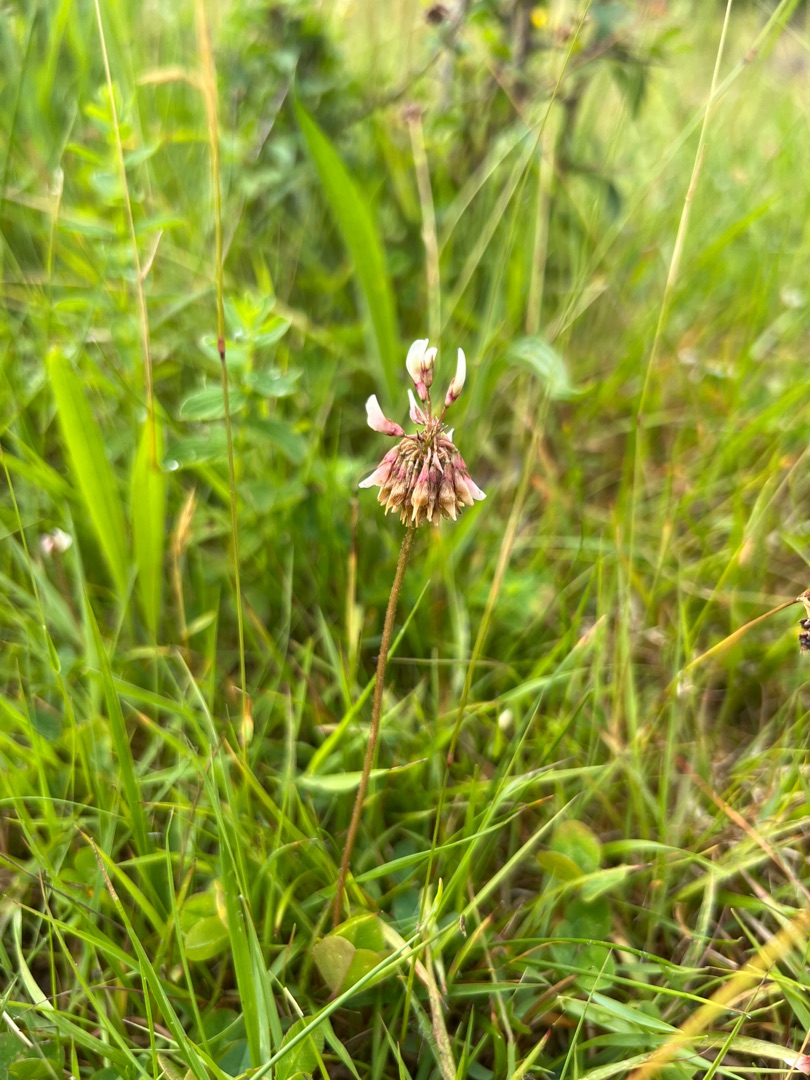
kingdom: Plantae
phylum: Tracheophyta
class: Magnoliopsida
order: Fabales
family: Fabaceae
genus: Trifolium
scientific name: Trifolium repens
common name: Hvid-kløver
